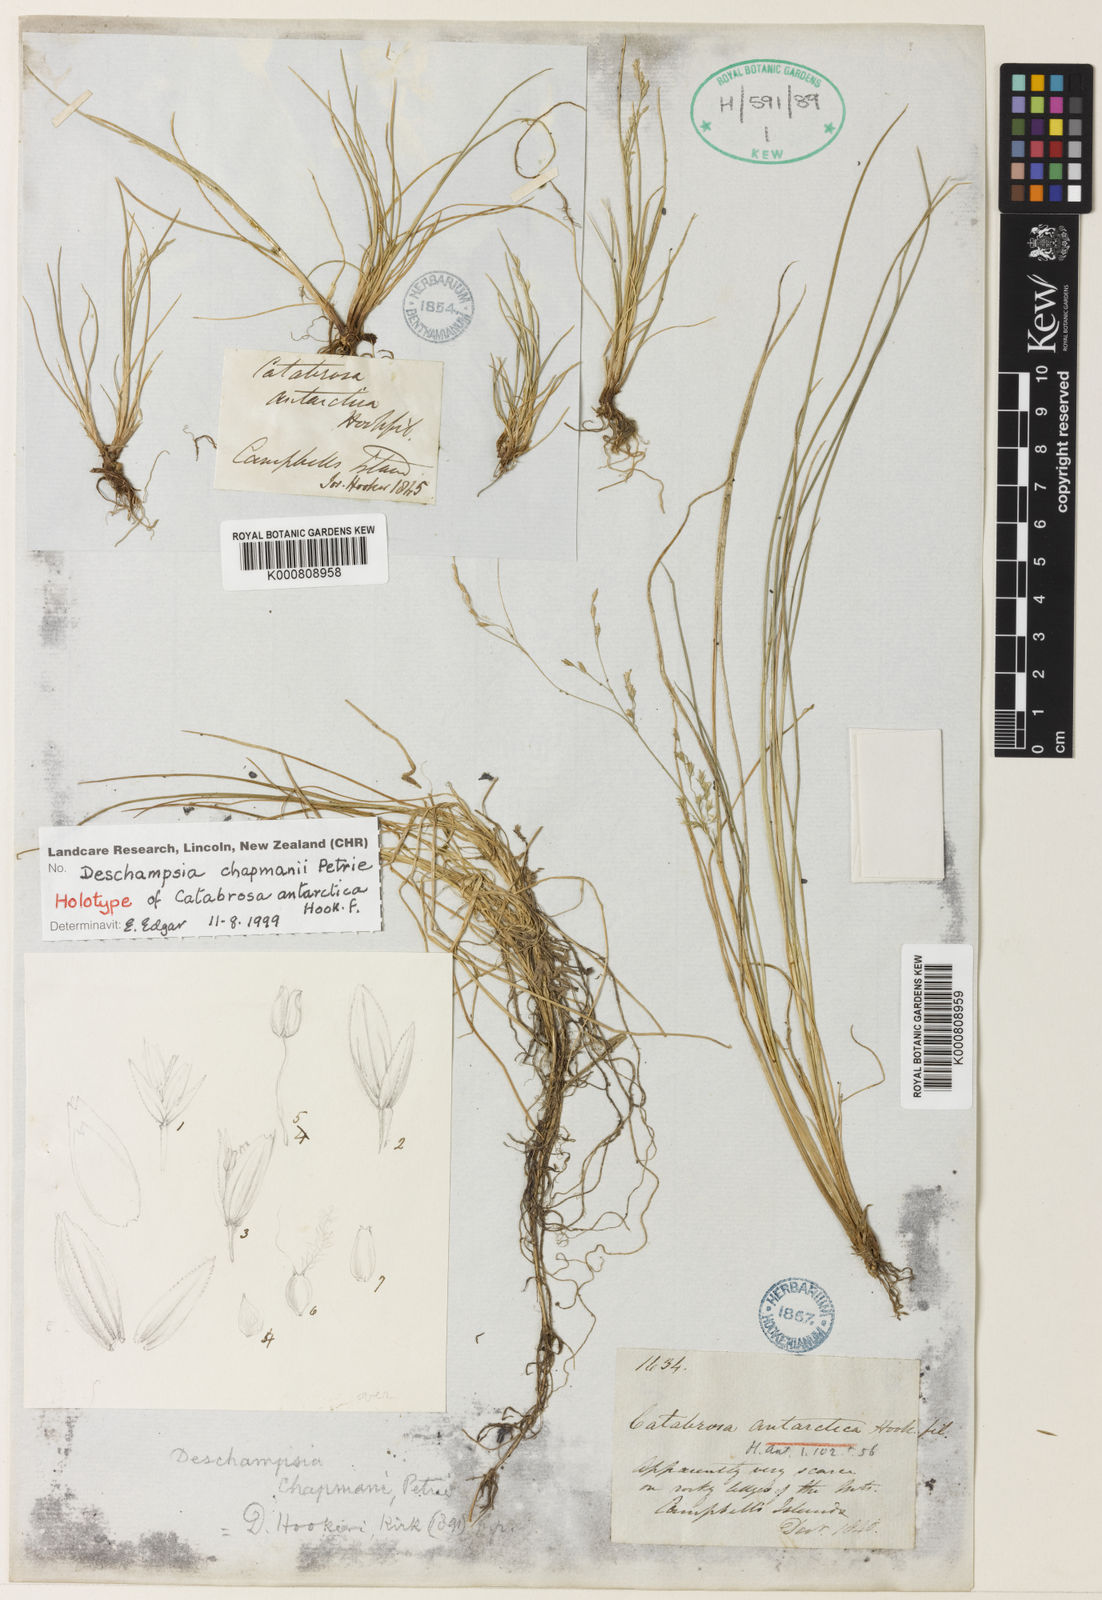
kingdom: Plantae
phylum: Tracheophyta
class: Liliopsida
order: Poales
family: Poaceae
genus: Deschampsia
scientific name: Deschampsia chapmanii
